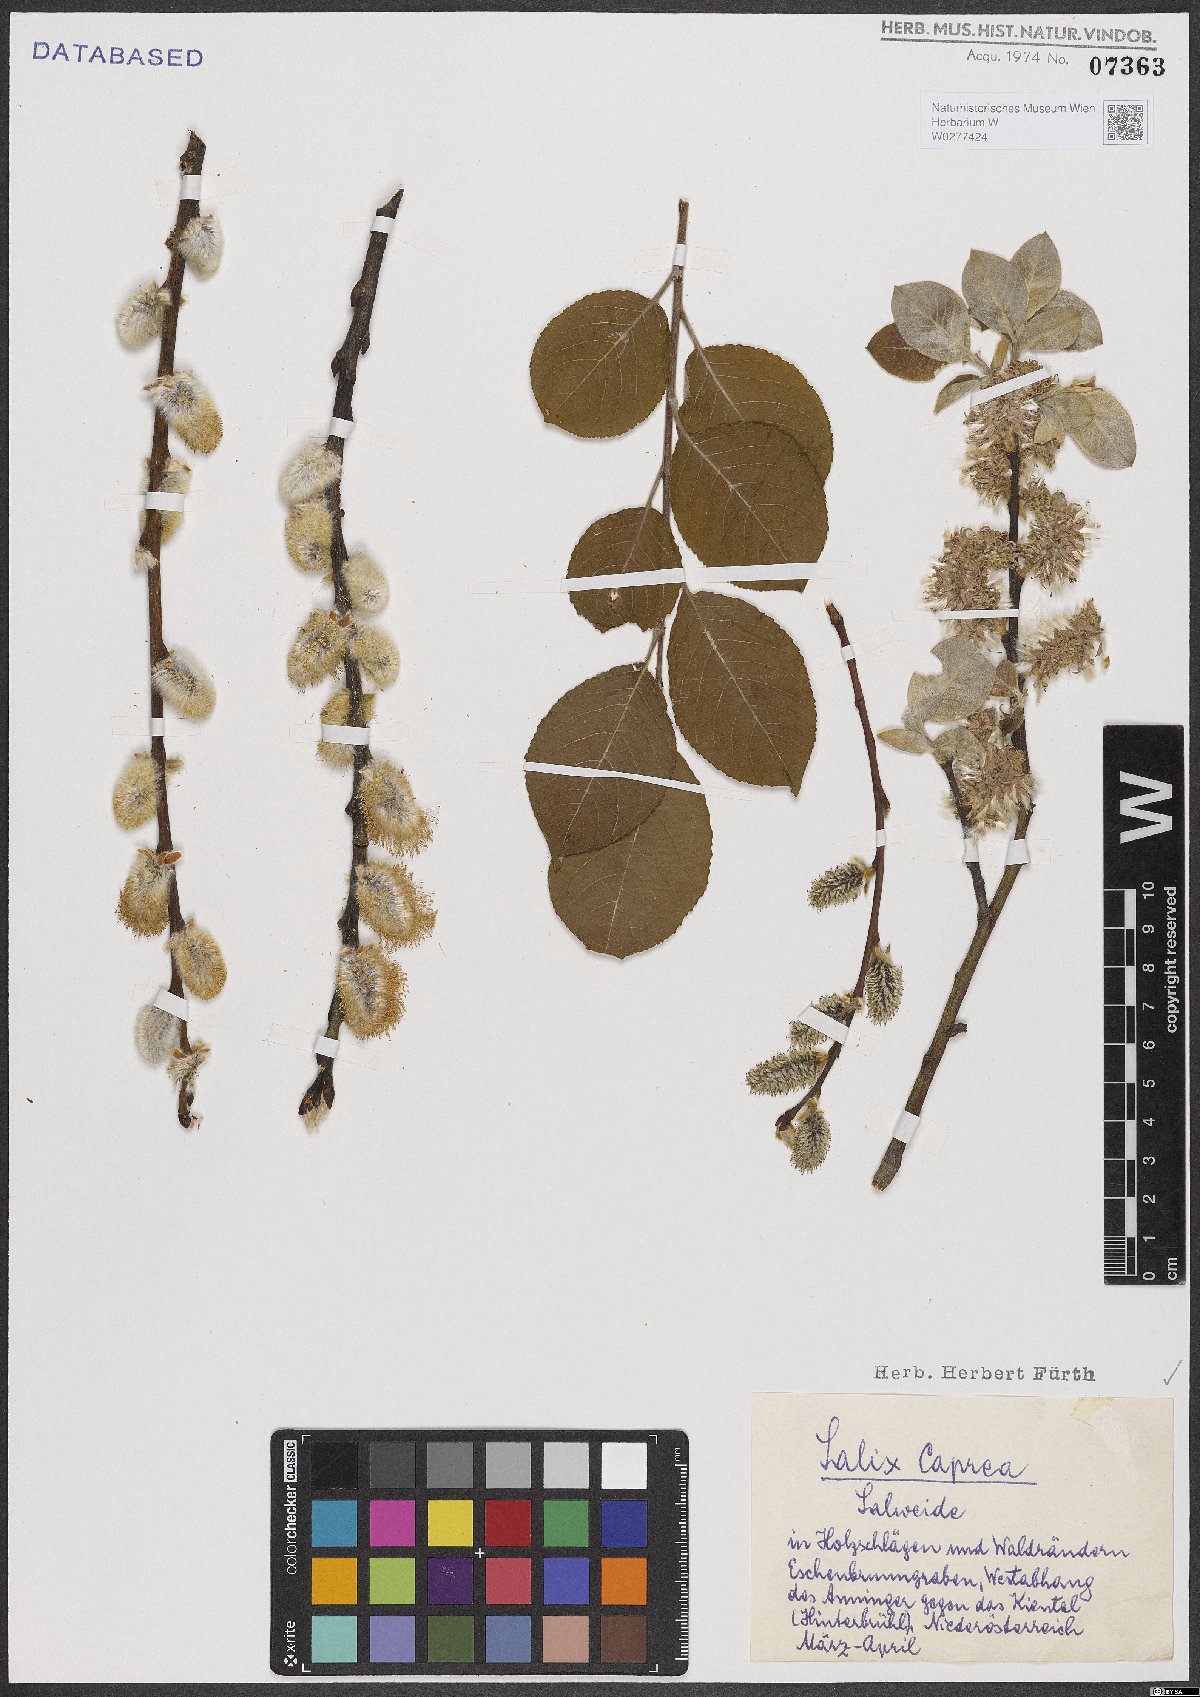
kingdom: Plantae
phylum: Tracheophyta
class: Magnoliopsida
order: Malpighiales
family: Salicaceae
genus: Salix
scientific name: Salix caprea
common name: Goat willow
